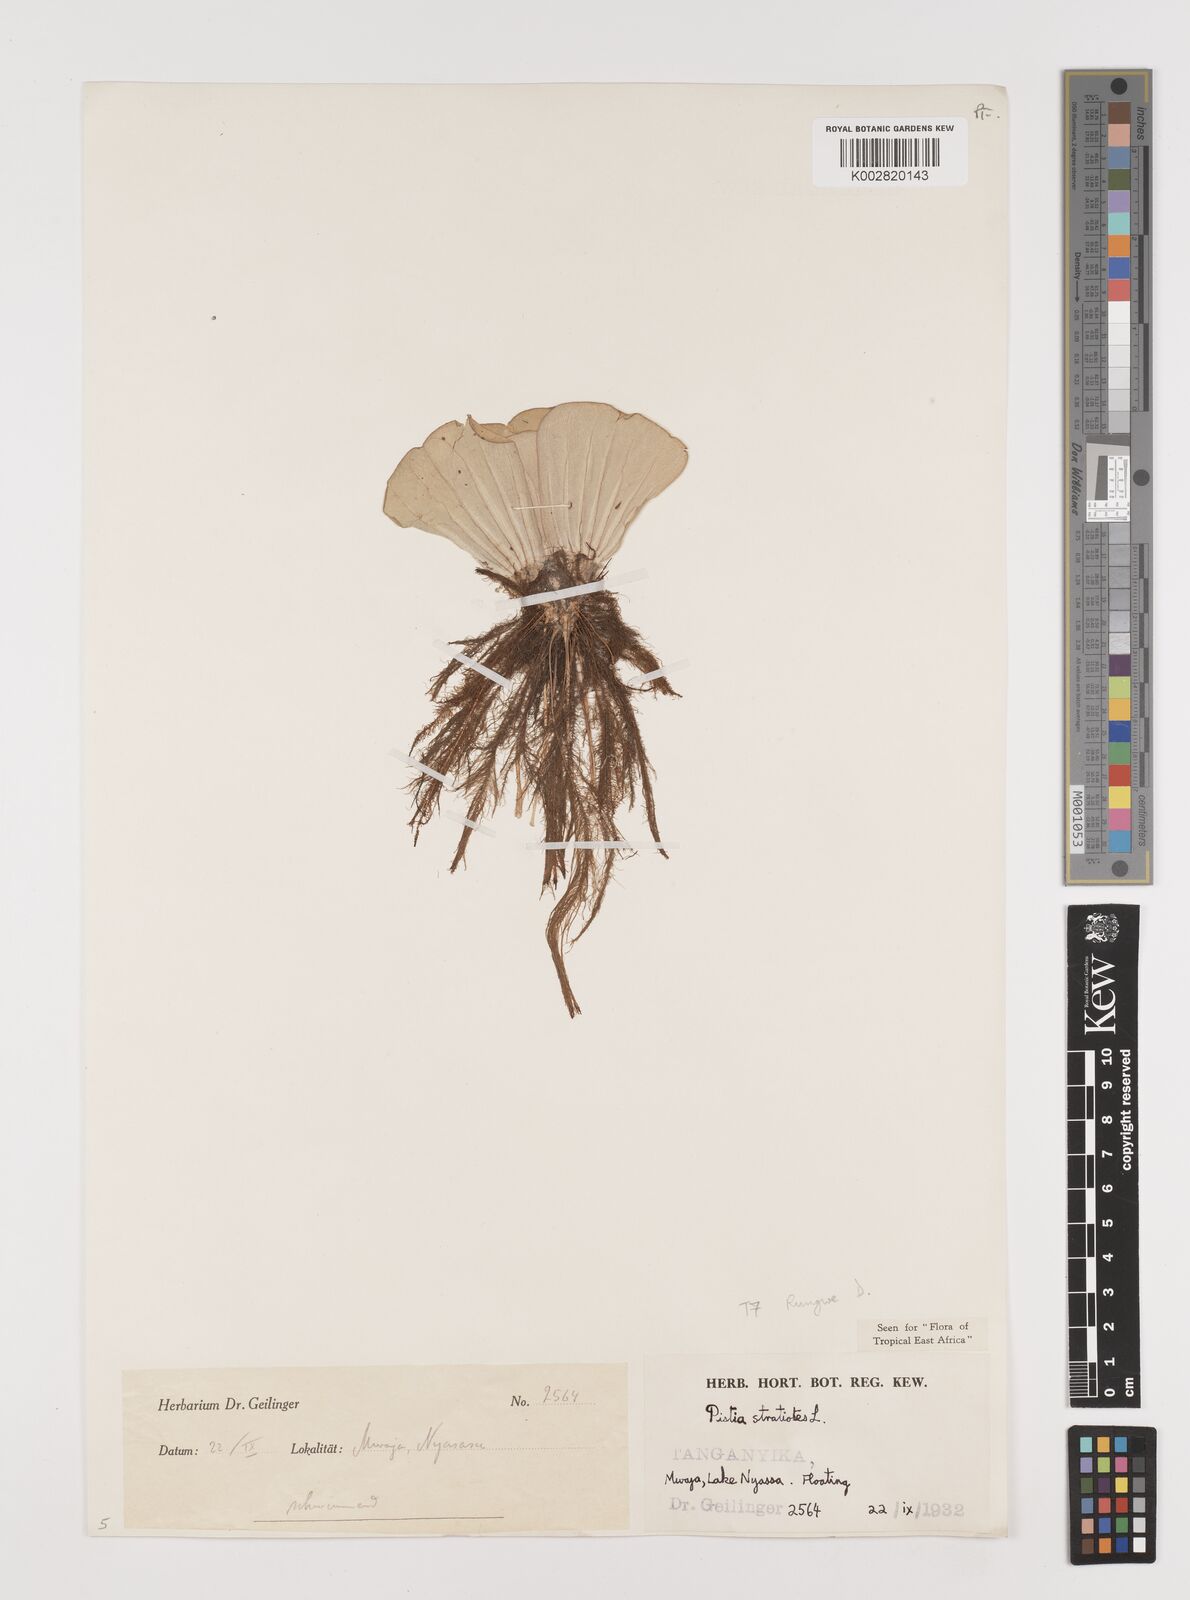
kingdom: Plantae
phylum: Tracheophyta
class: Liliopsida
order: Alismatales
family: Araceae
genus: Pistia
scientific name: Pistia stratiotes
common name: Water lettuce
